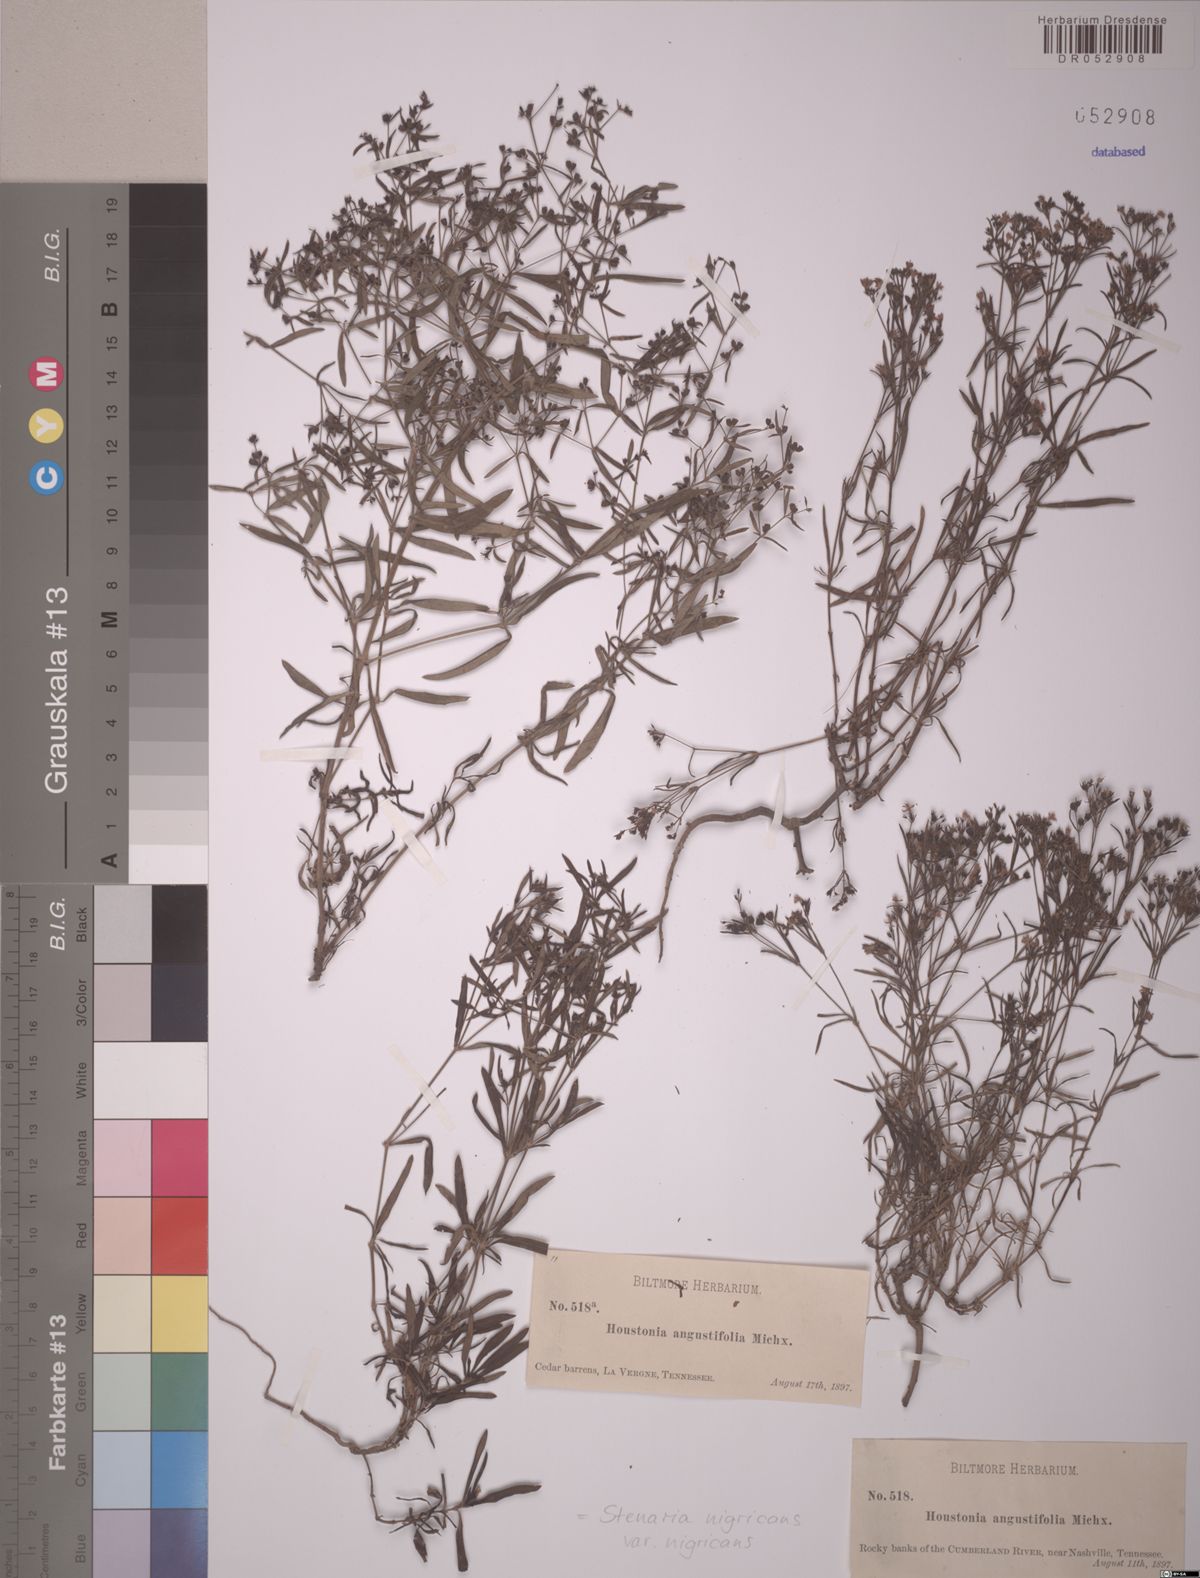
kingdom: Plantae
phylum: Tracheophyta
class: Magnoliopsida
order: Gentianales
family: Rubiaceae
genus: Stenaria
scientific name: Stenaria nigricans
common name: Diamondflowers
